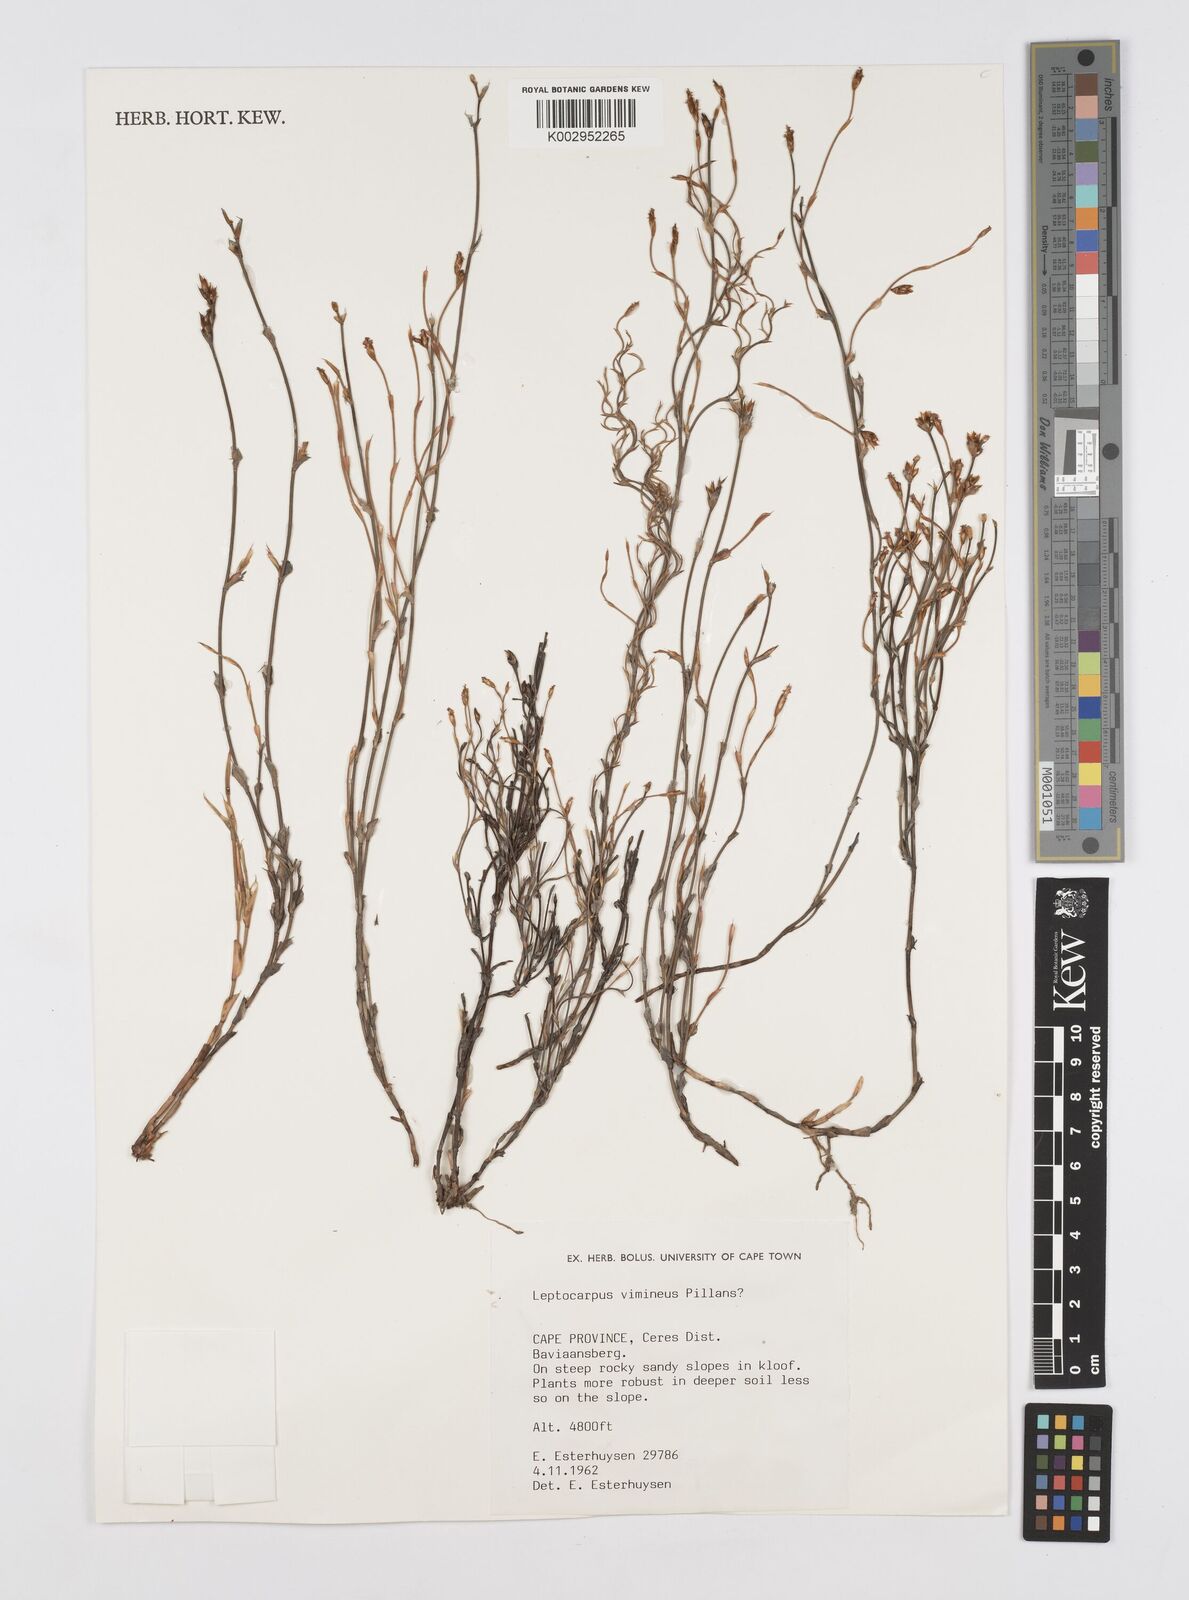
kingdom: Plantae
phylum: Tracheophyta
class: Liliopsida
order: Poales
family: Restionaceae
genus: Restio
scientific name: Restio vimineus
